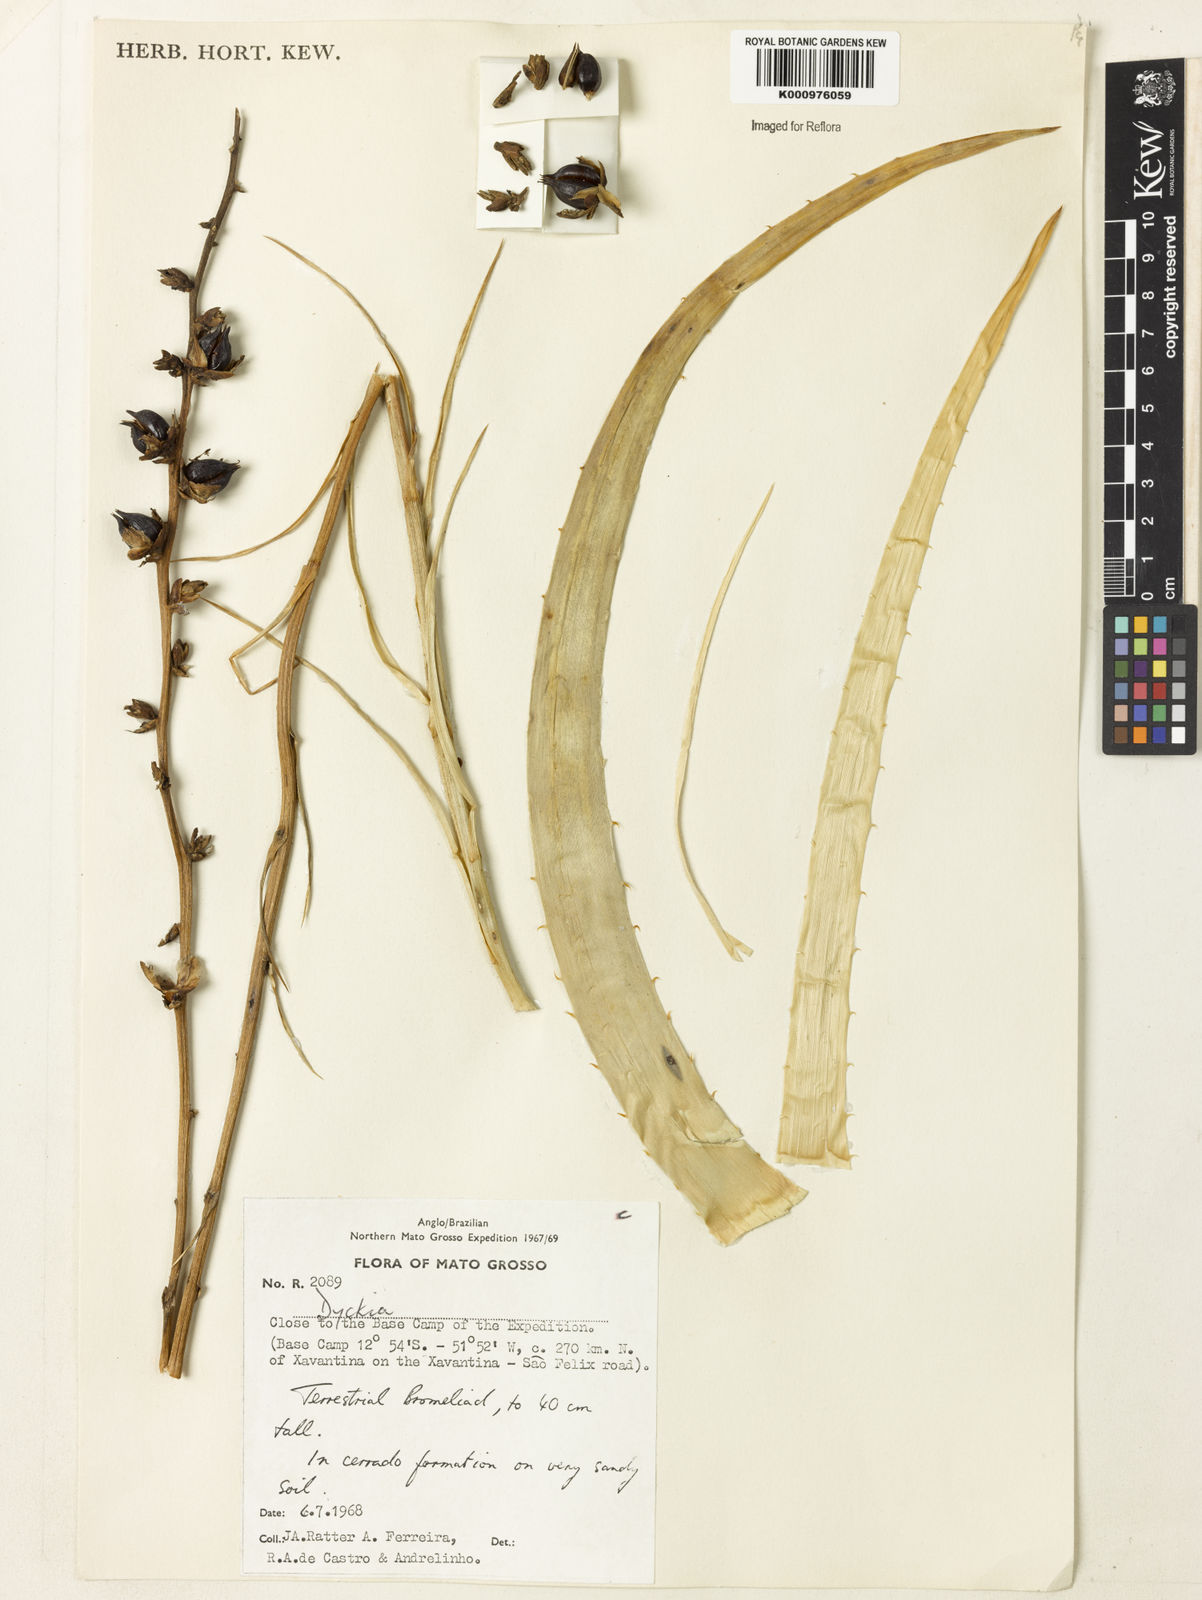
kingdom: Plantae
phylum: Tracheophyta
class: Liliopsida
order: Poales
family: Bromeliaceae
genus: Dyckia
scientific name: Dyckia
